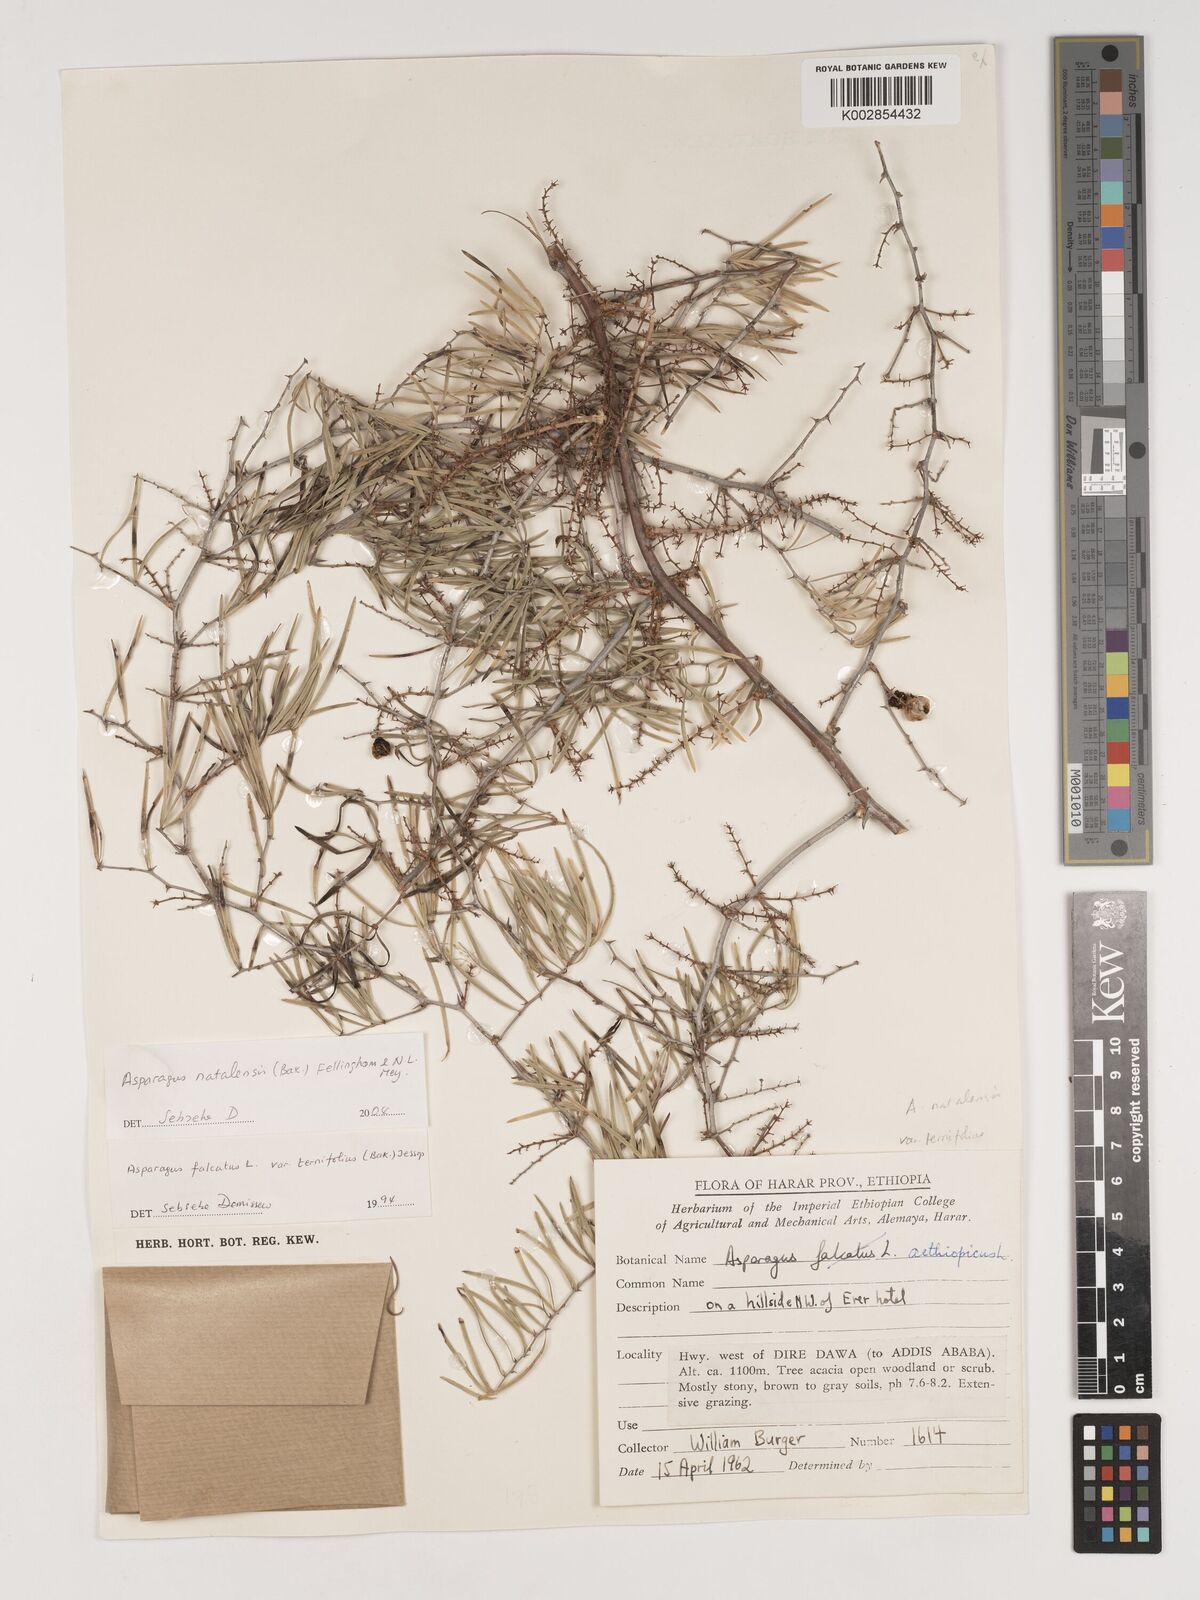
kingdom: Plantae
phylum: Tracheophyta
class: Liliopsida
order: Asparagales
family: Asparagaceae
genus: Asparagus
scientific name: Asparagus natalensis
